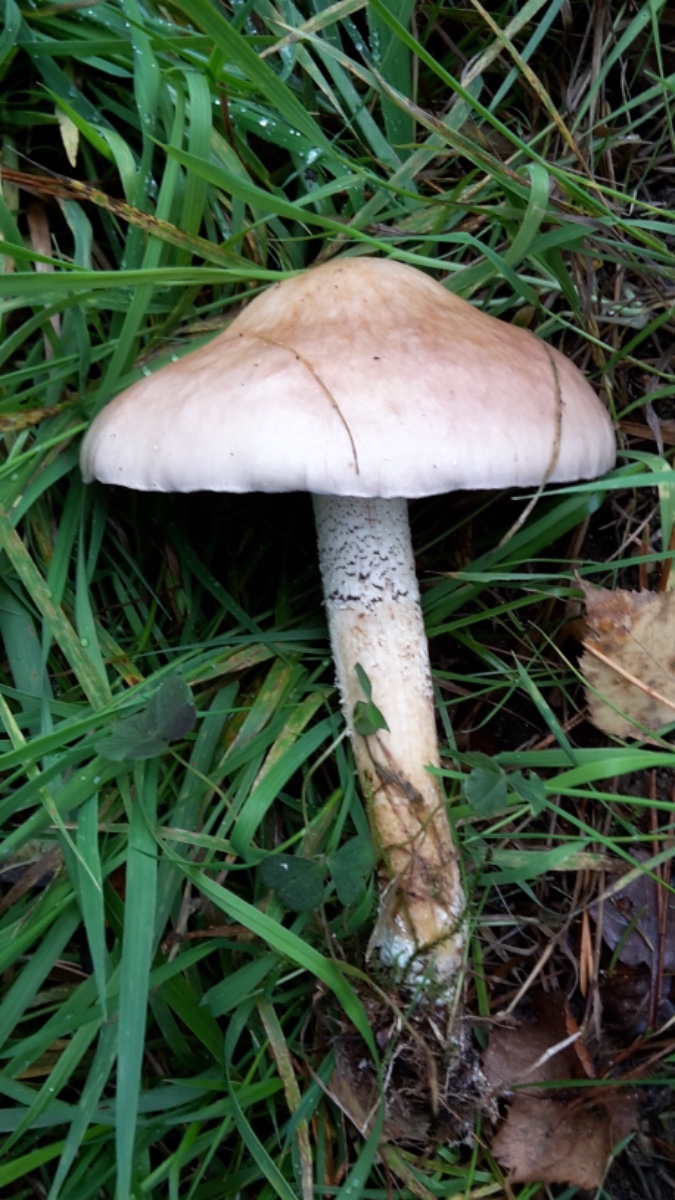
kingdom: Fungi
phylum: Basidiomycota
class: Agaricomycetes
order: Agaricales
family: Strophariaceae
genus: Stropharia
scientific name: Stropharia hornemannii
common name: nordisk bredblad
